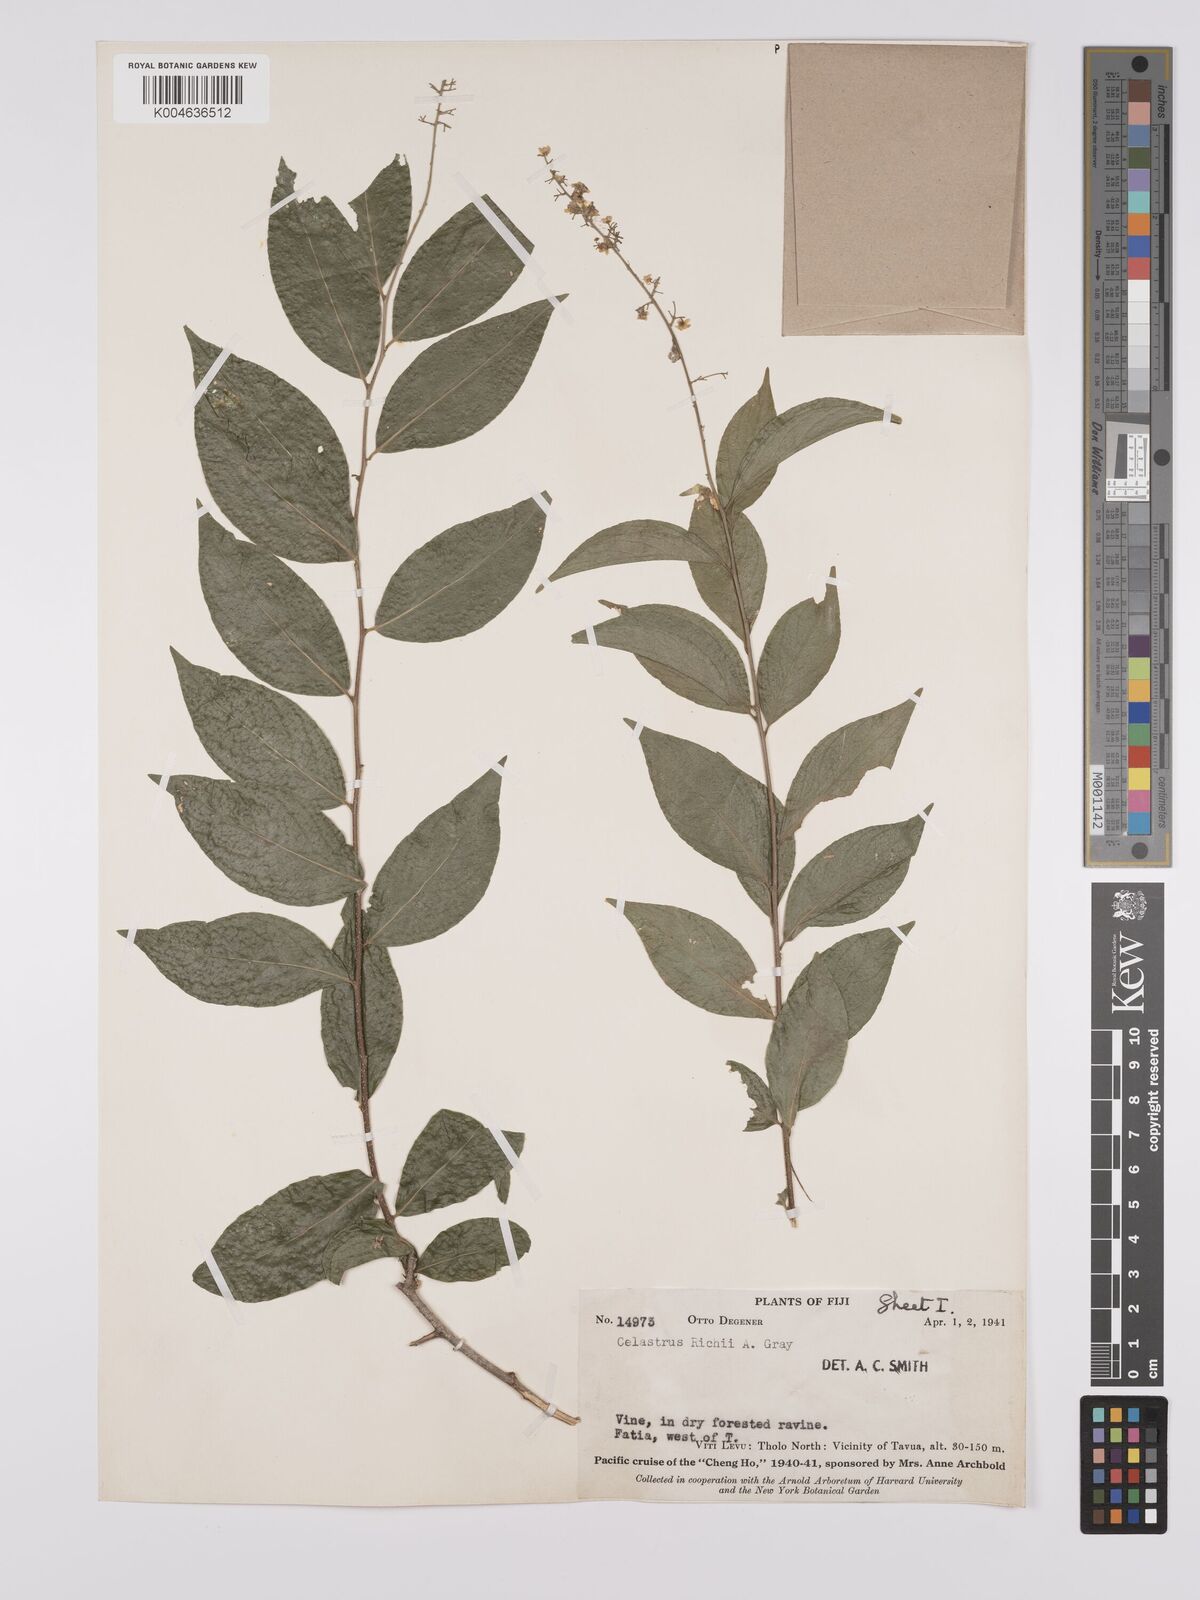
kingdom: Plantae
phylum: Tracheophyta
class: Magnoliopsida
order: Celastrales
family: Celastraceae
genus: Celastrus
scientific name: Celastrus richii
